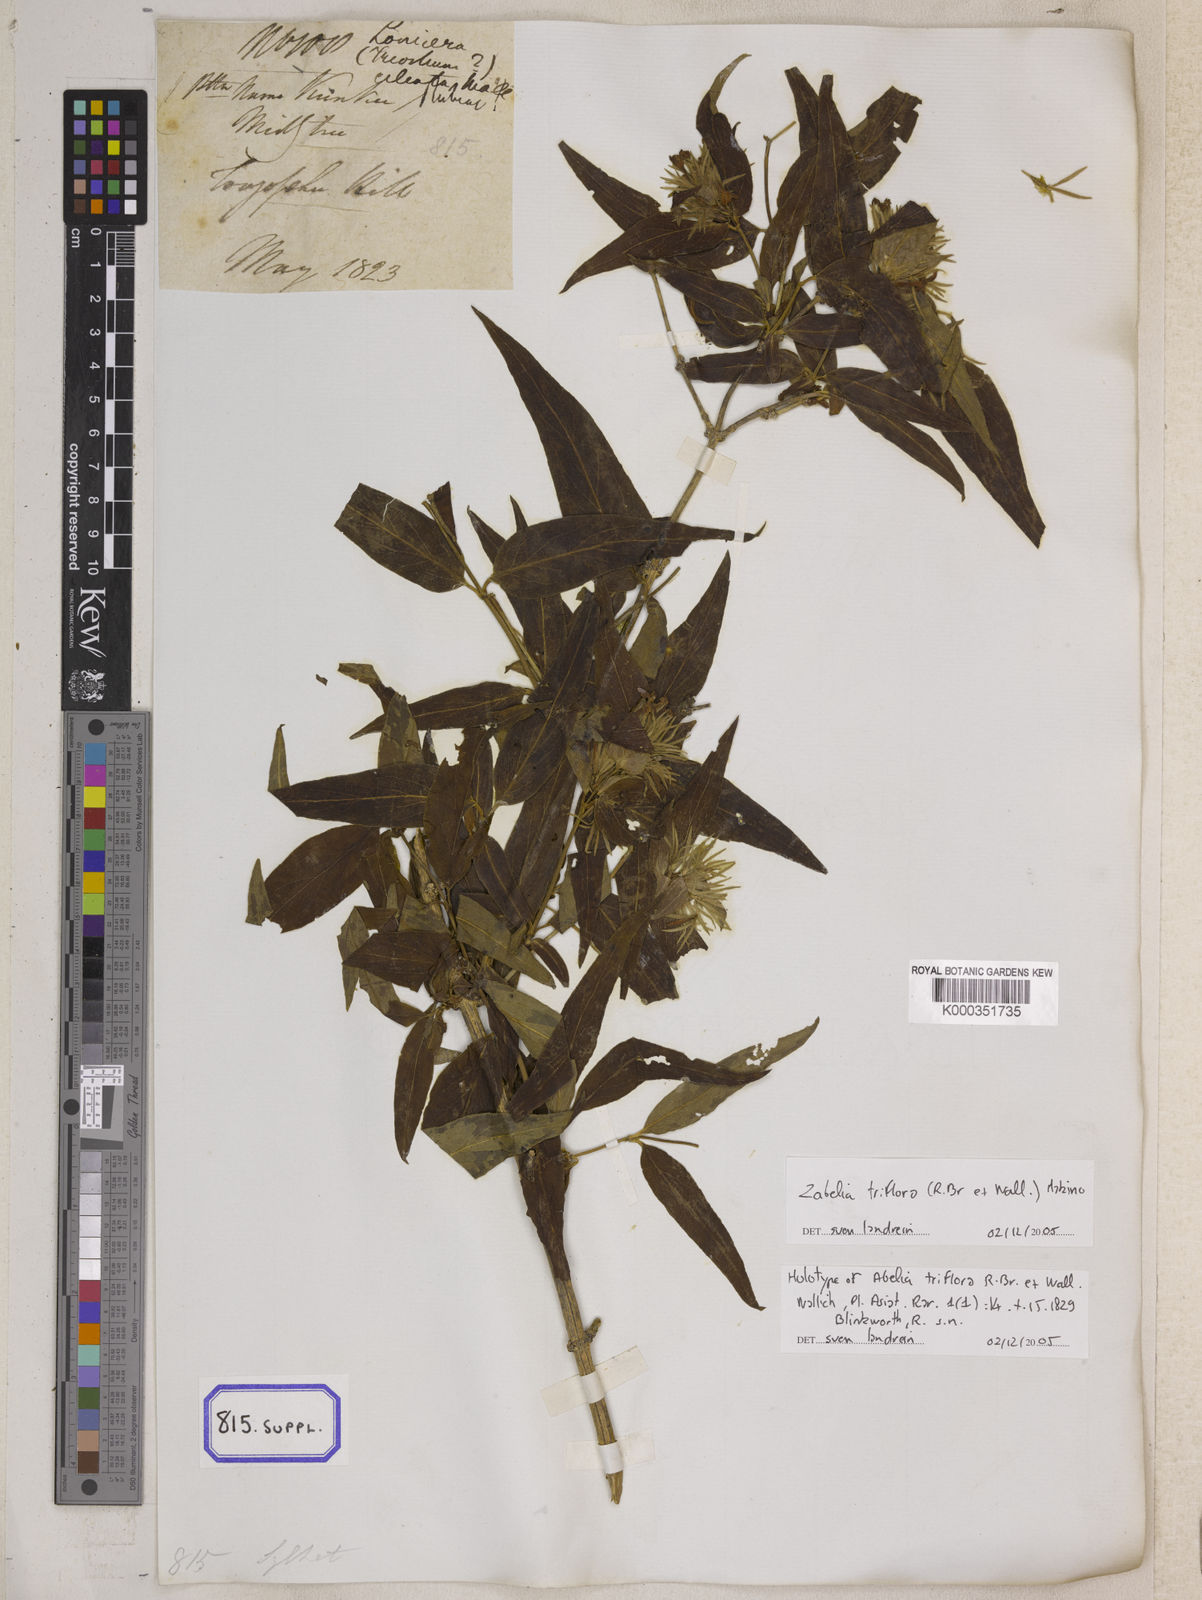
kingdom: Plantae
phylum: Tracheophyta
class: Magnoliopsida
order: Dipsacales
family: Caprifoliaceae
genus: Abelia
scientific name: Abelia
